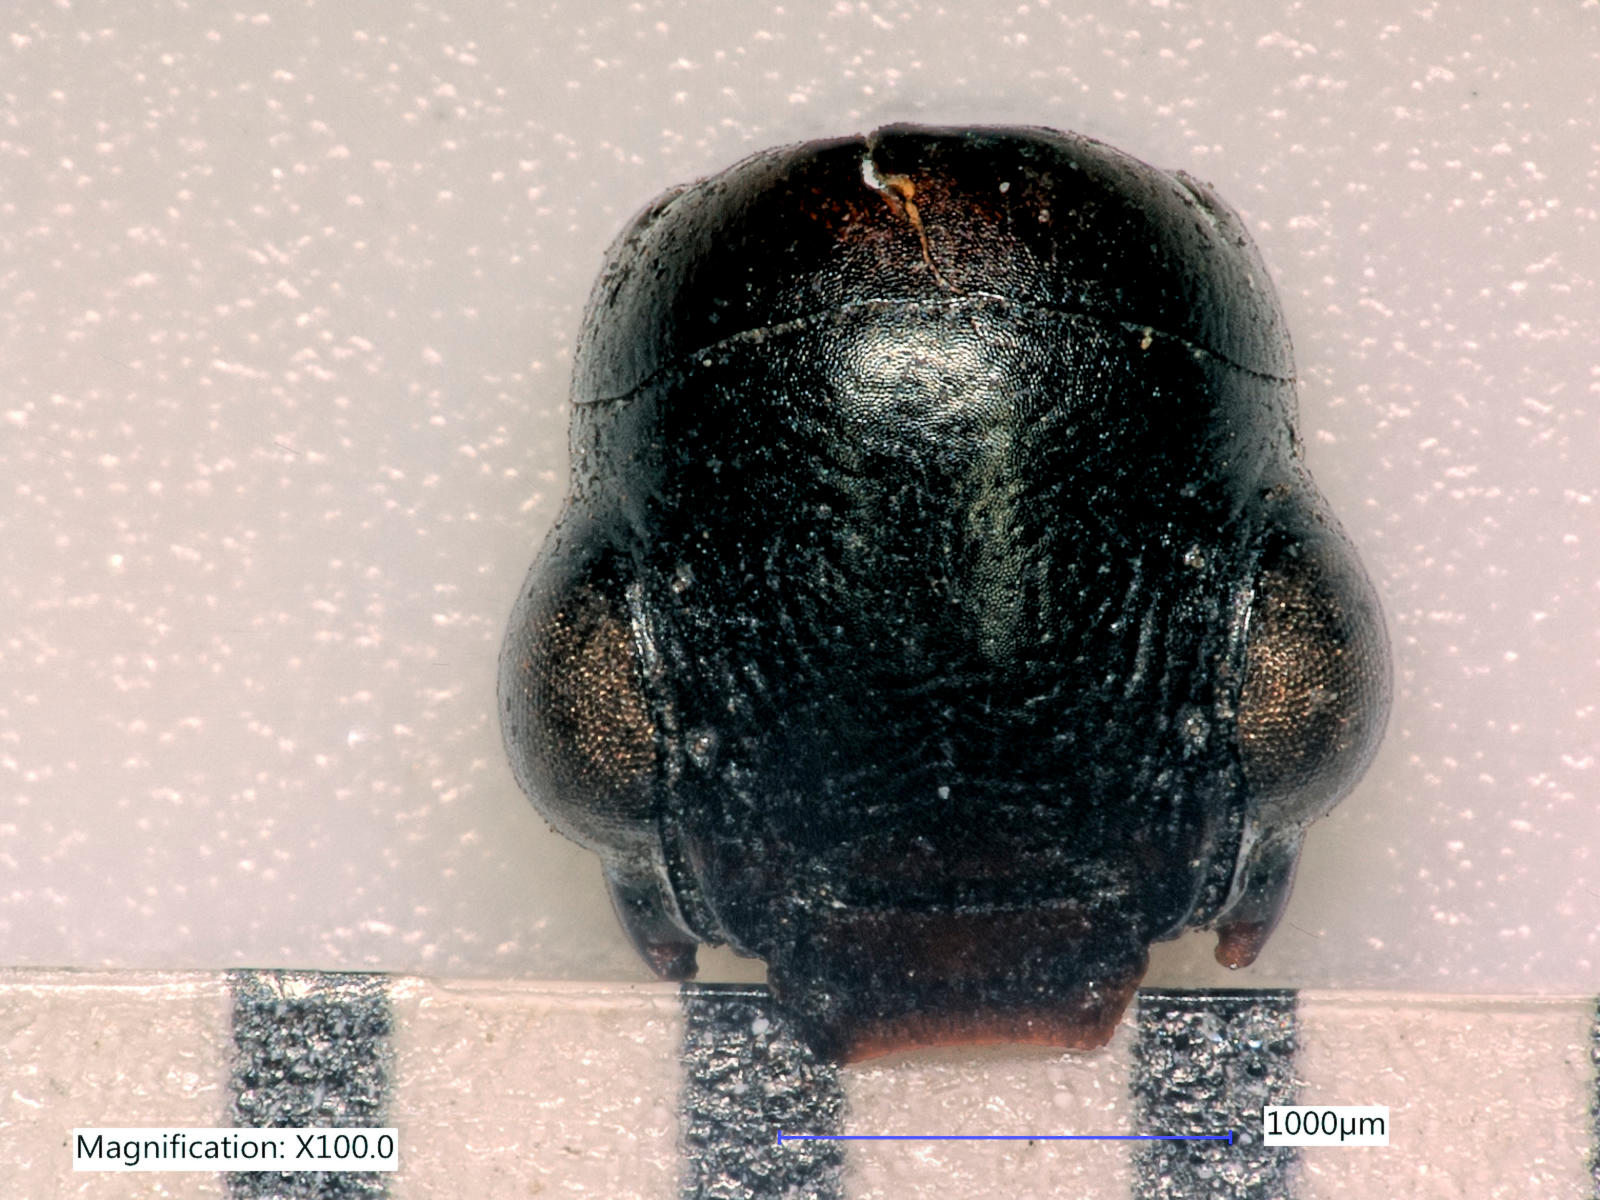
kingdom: Animalia
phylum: Arthropoda
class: Insecta
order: Coleoptera
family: Carabidae
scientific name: Carabidae
